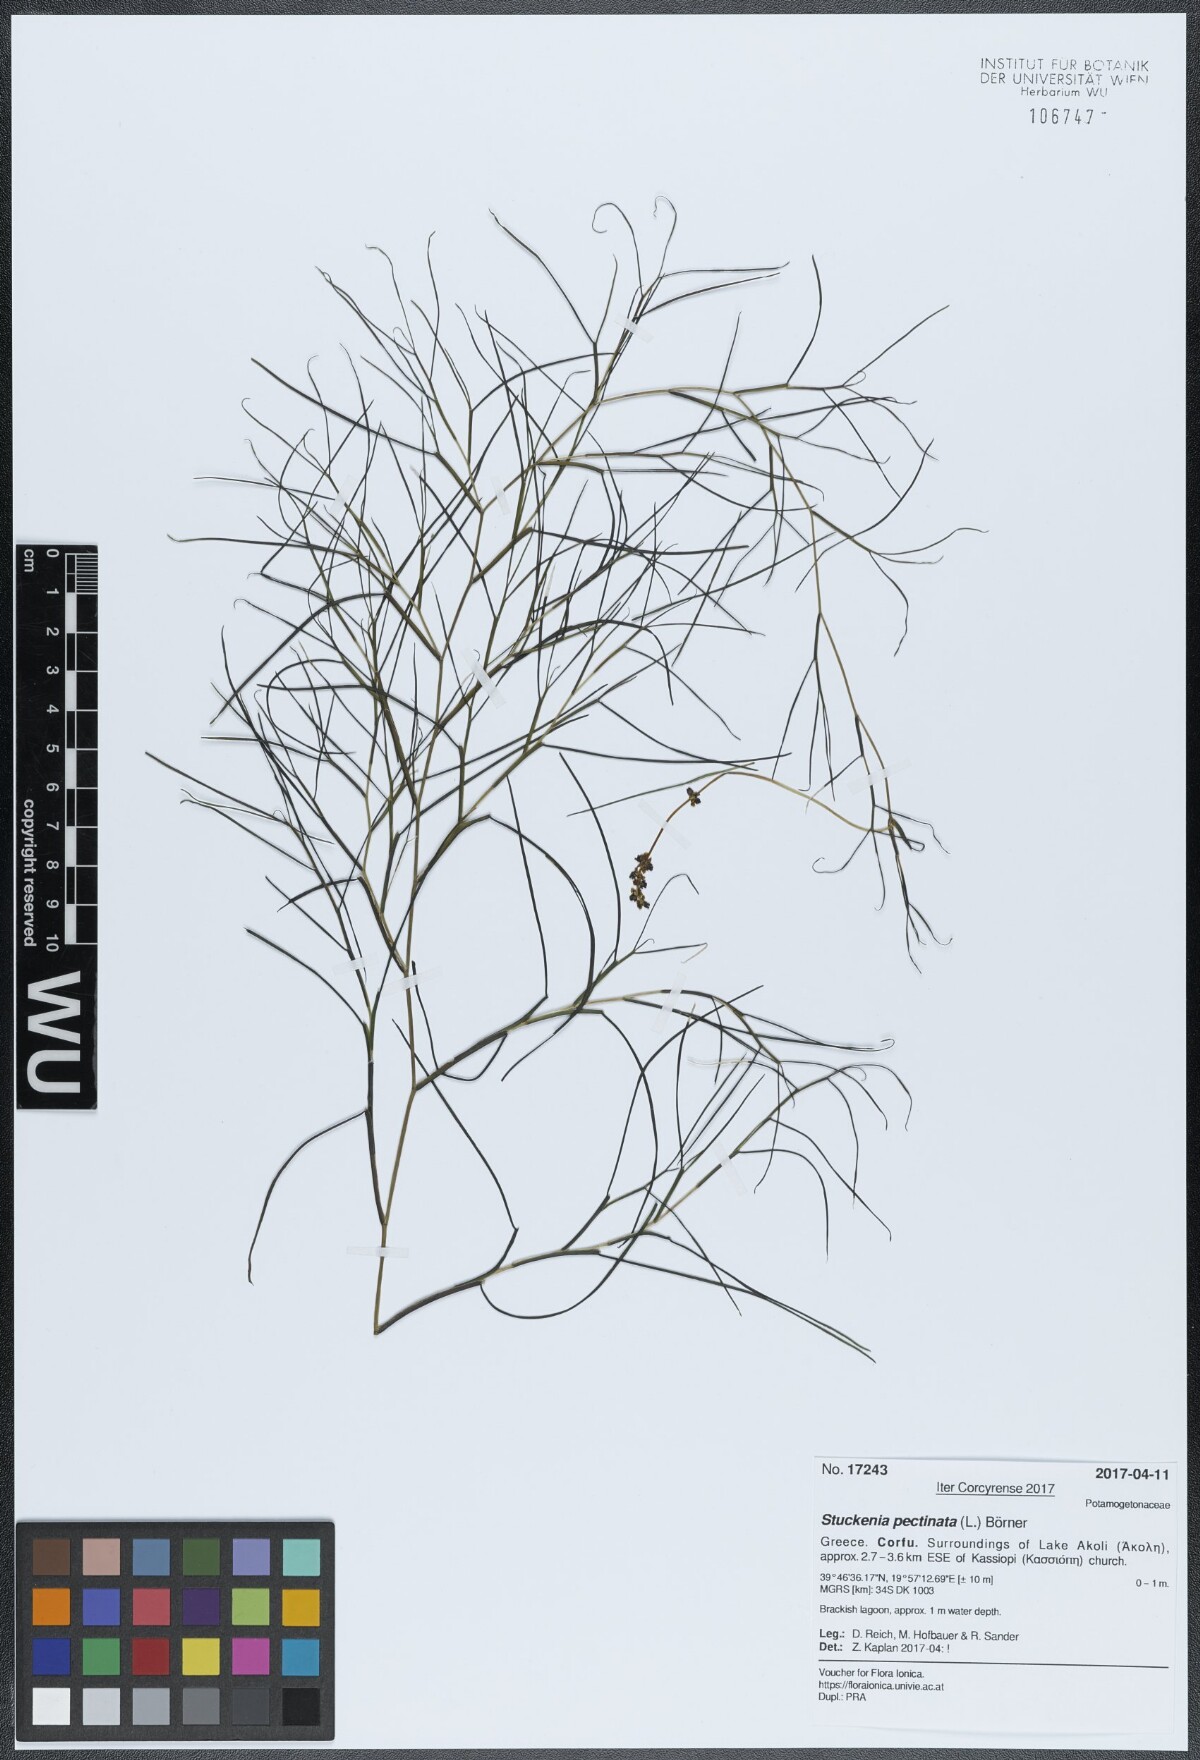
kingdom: Plantae
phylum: Tracheophyta
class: Liliopsida
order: Alismatales
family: Potamogetonaceae
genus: Stuckenia
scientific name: Stuckenia pectinata
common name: Sago pondweed
